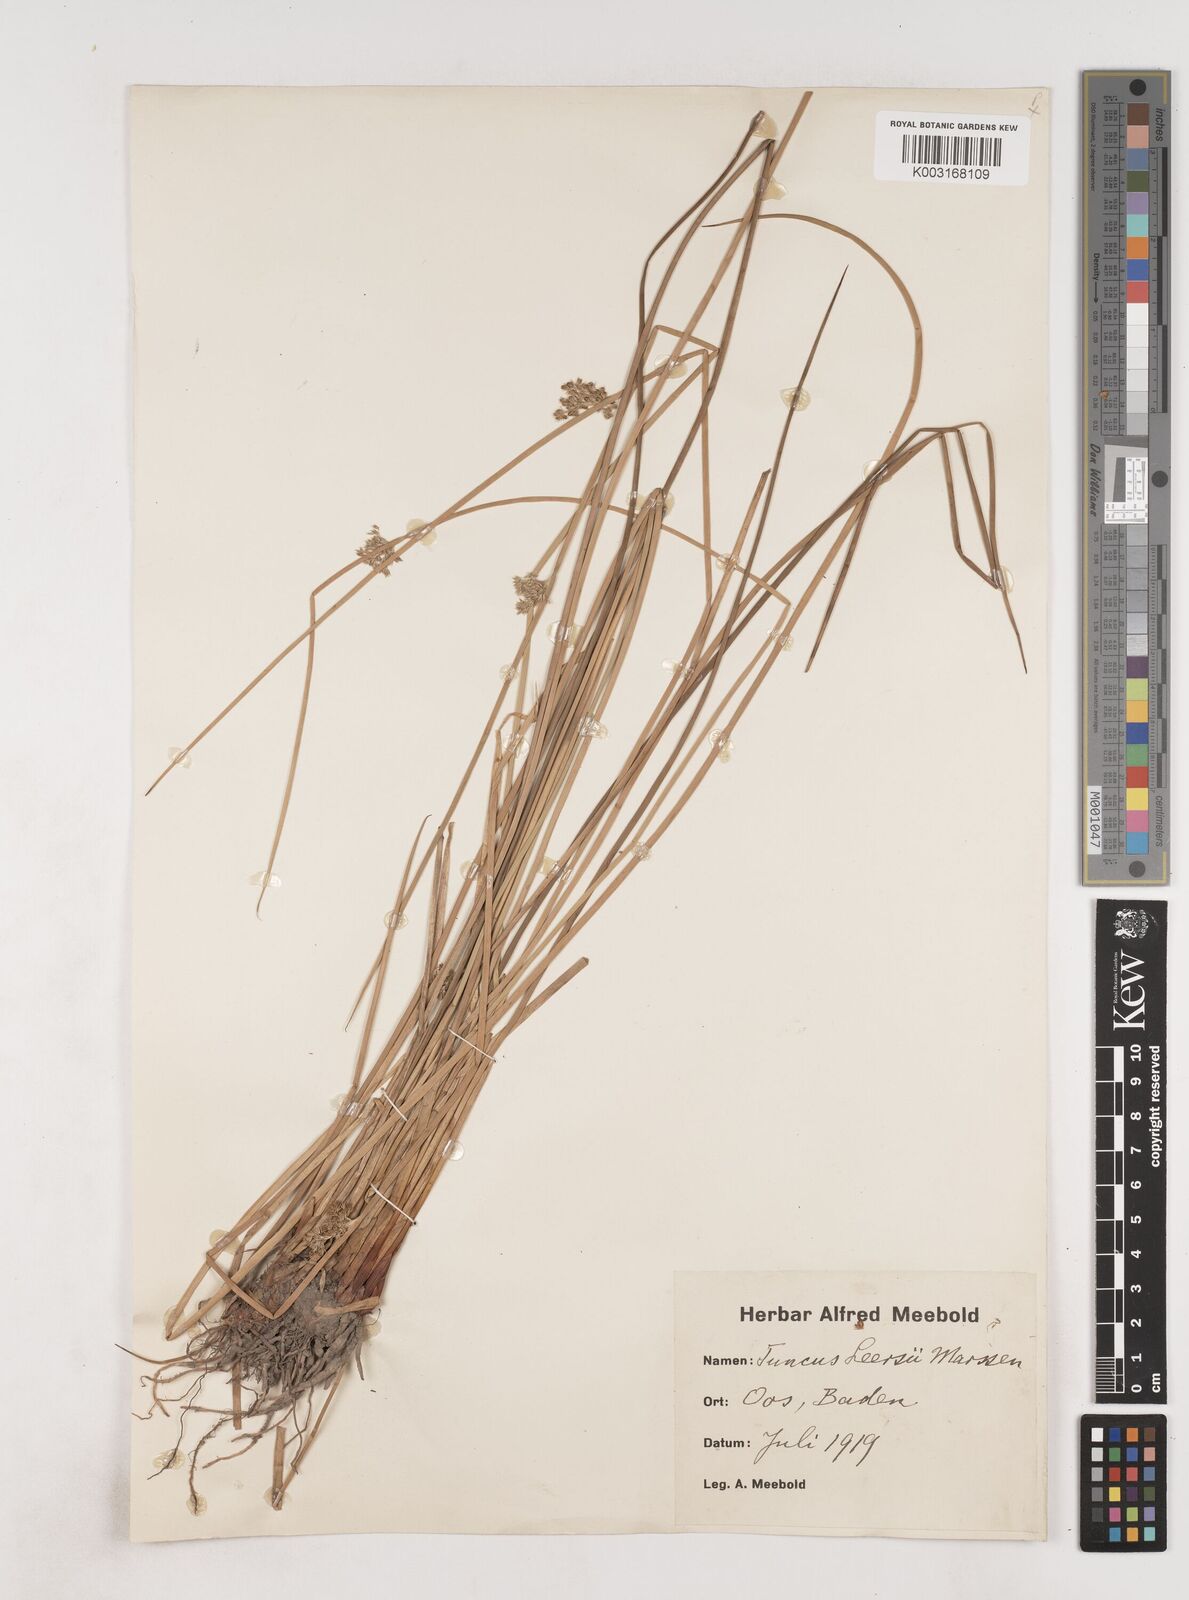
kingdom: Plantae
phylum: Tracheophyta
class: Liliopsida
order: Poales
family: Juncaceae
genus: Juncus
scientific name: Juncus conglomeratus
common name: Compact rush
